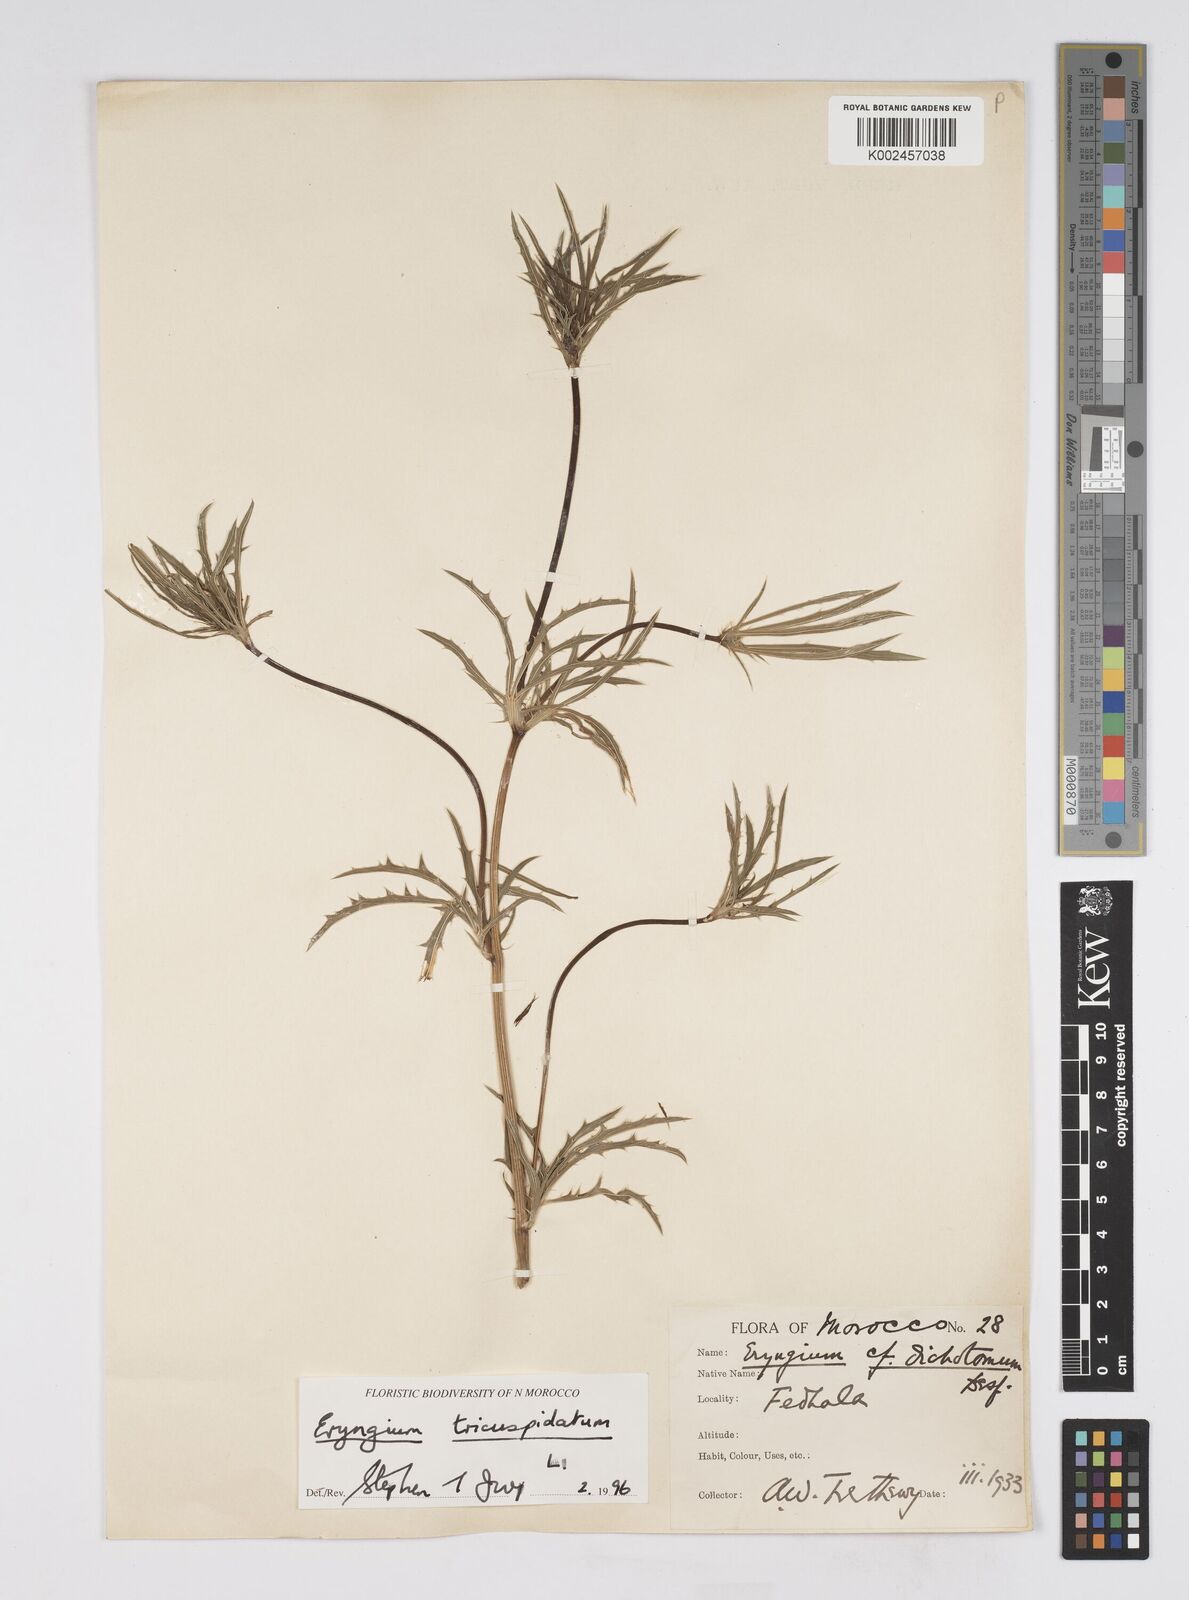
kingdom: Plantae
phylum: Tracheophyta
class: Magnoliopsida
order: Apiales
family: Apiaceae
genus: Eryngium
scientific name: Eryngium tricuspidatum
